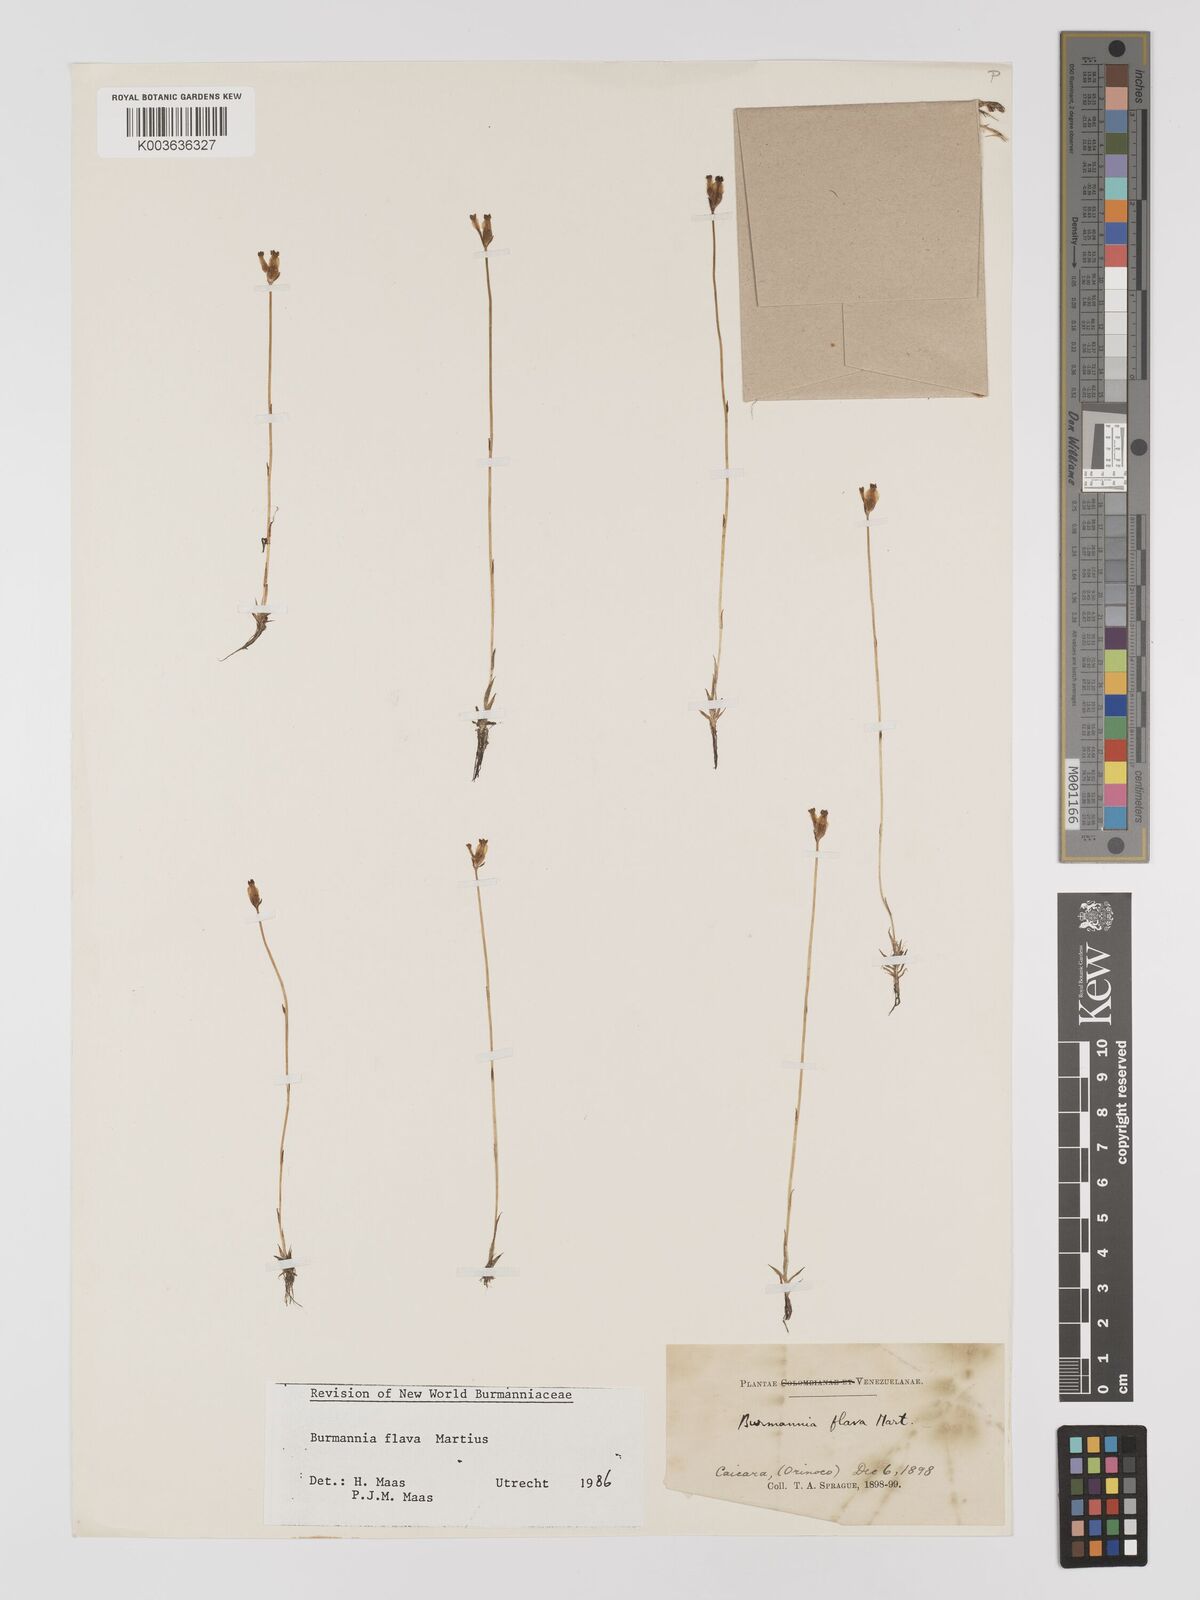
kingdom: Plantae
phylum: Tracheophyta
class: Liliopsida
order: Dioscoreales
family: Burmanniaceae
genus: Burmannia
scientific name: Burmannia flava
